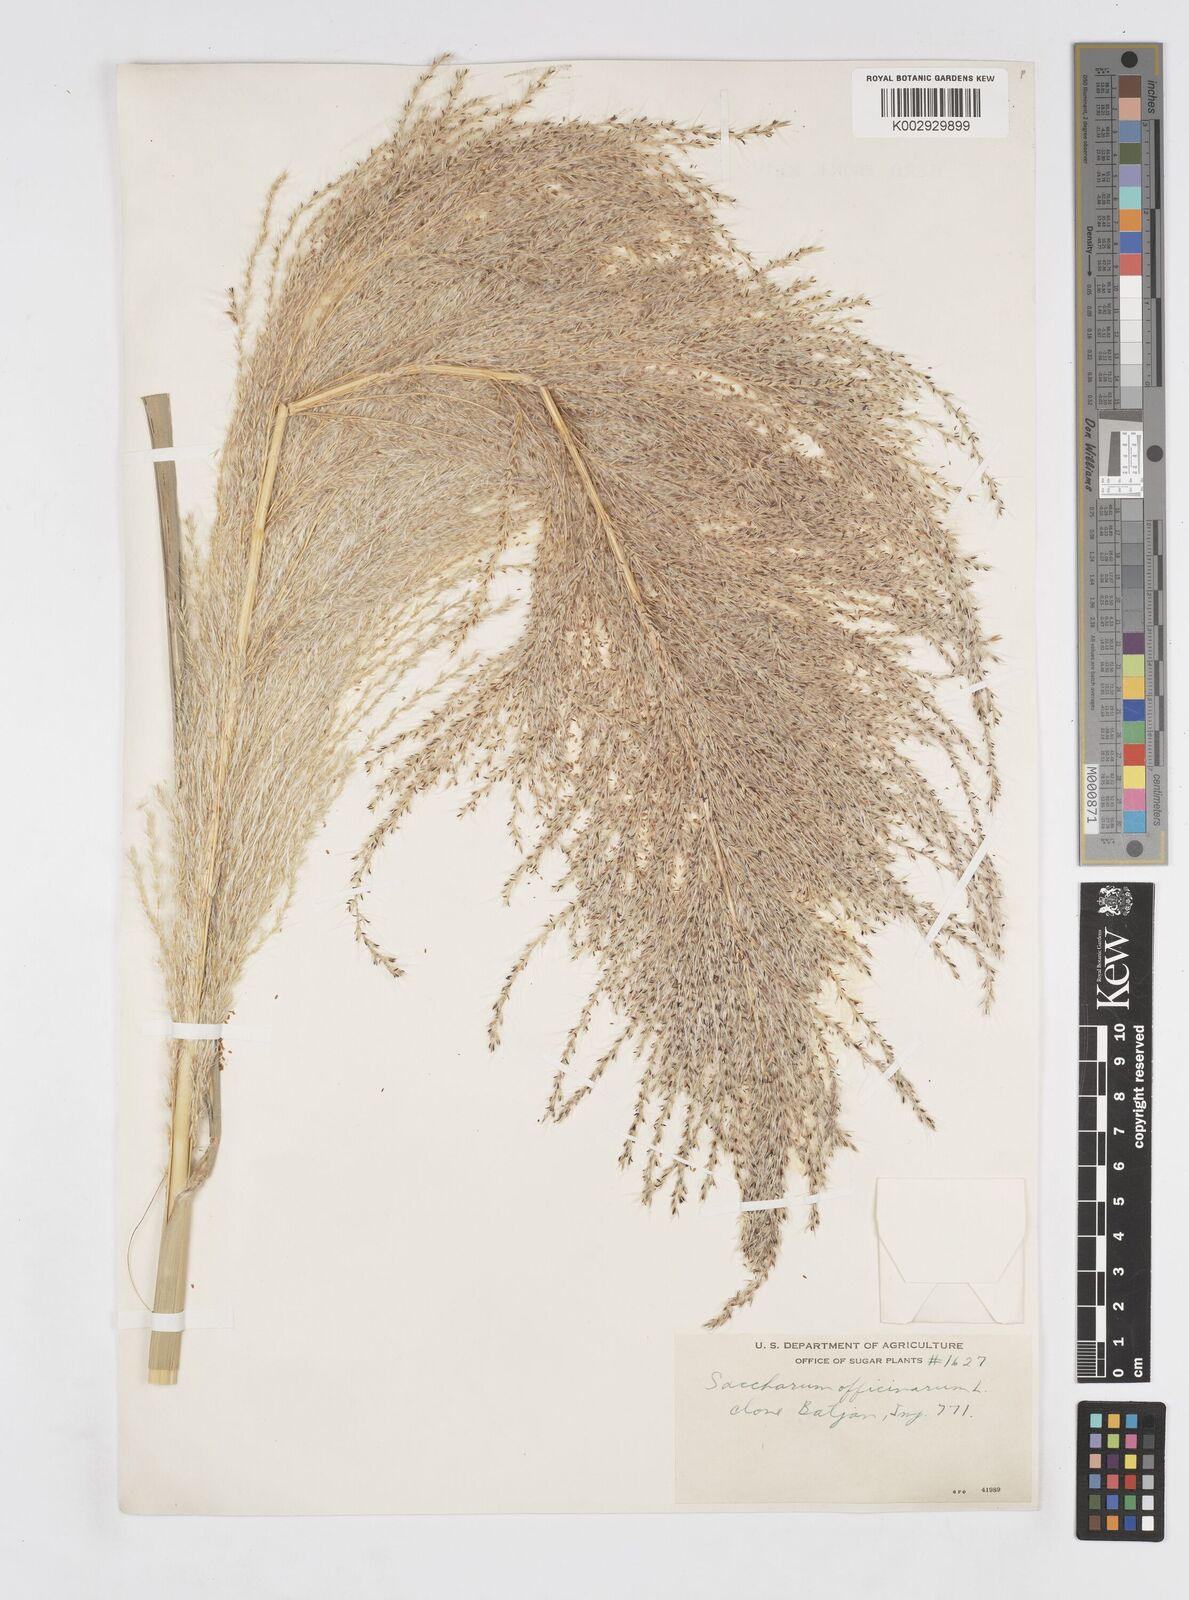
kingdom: Plantae
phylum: Tracheophyta
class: Liliopsida
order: Poales
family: Poaceae
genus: Saccharum
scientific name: Saccharum officinarum
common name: Sugarcane
